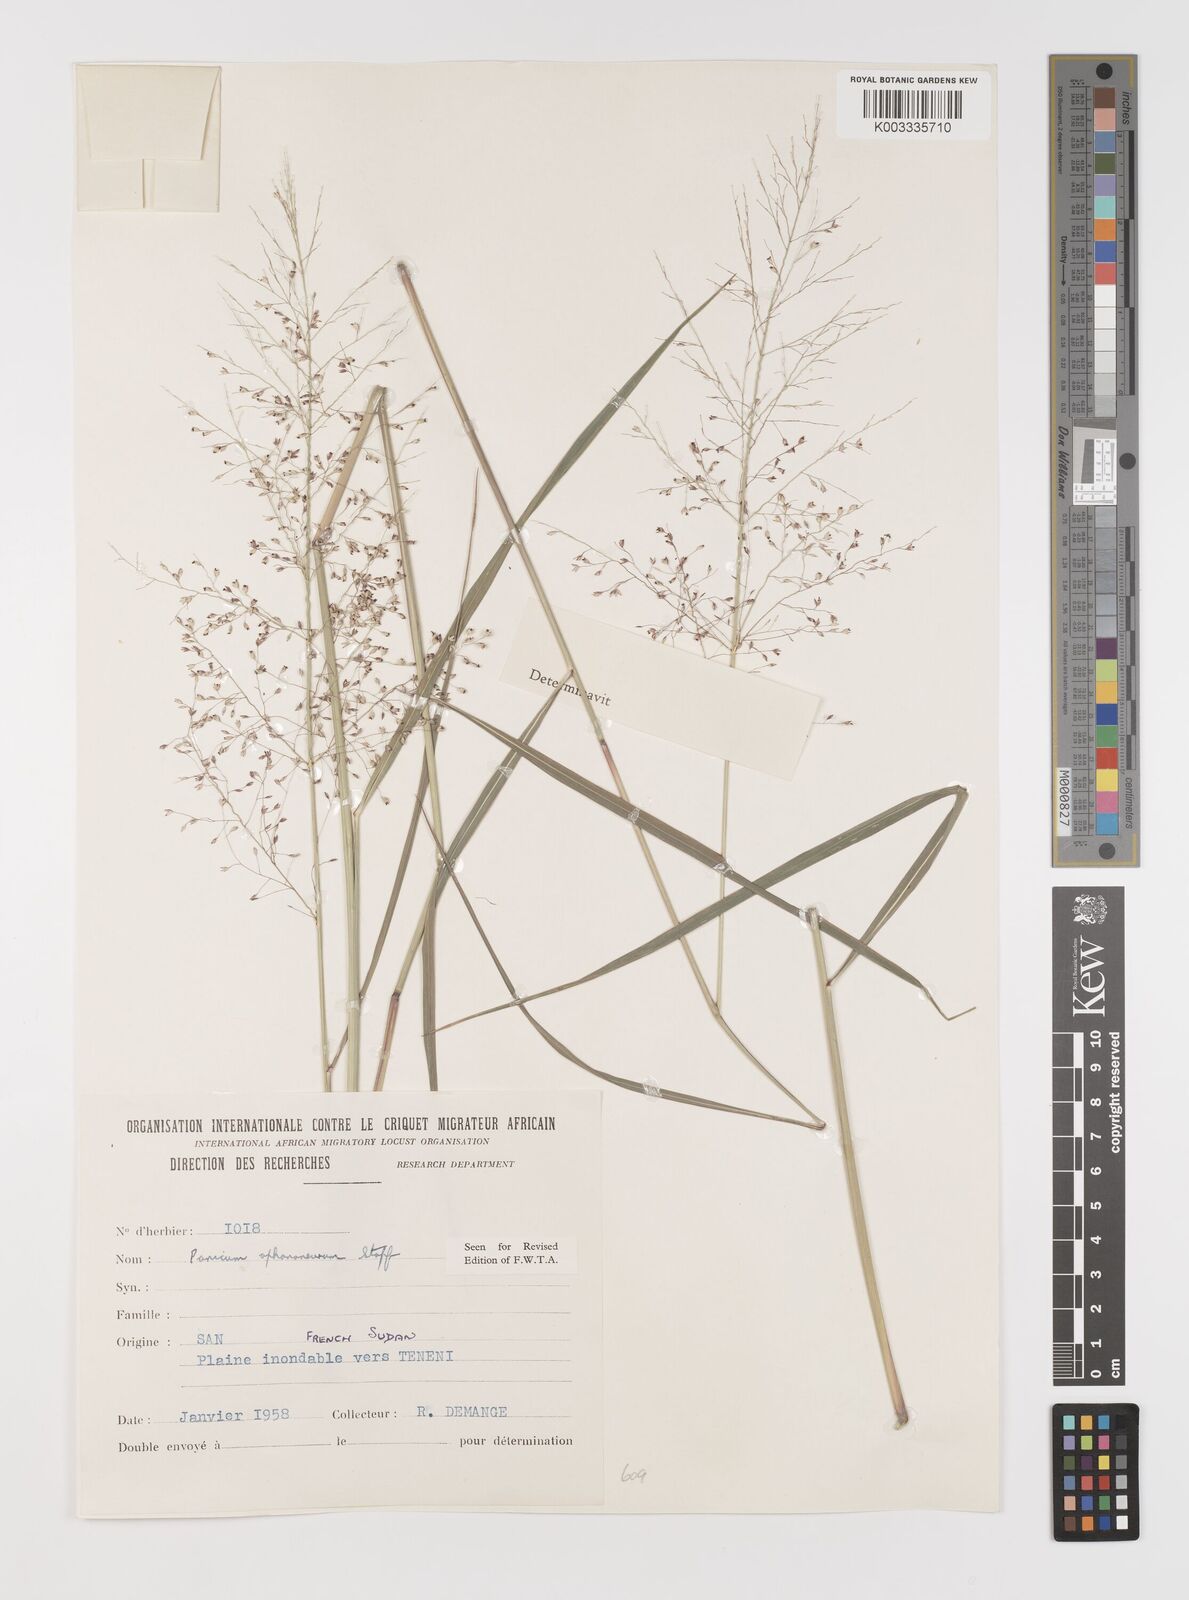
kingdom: Plantae
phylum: Tracheophyta
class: Liliopsida
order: Poales
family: Poaceae
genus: Panicum
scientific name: Panicum fluviicola
